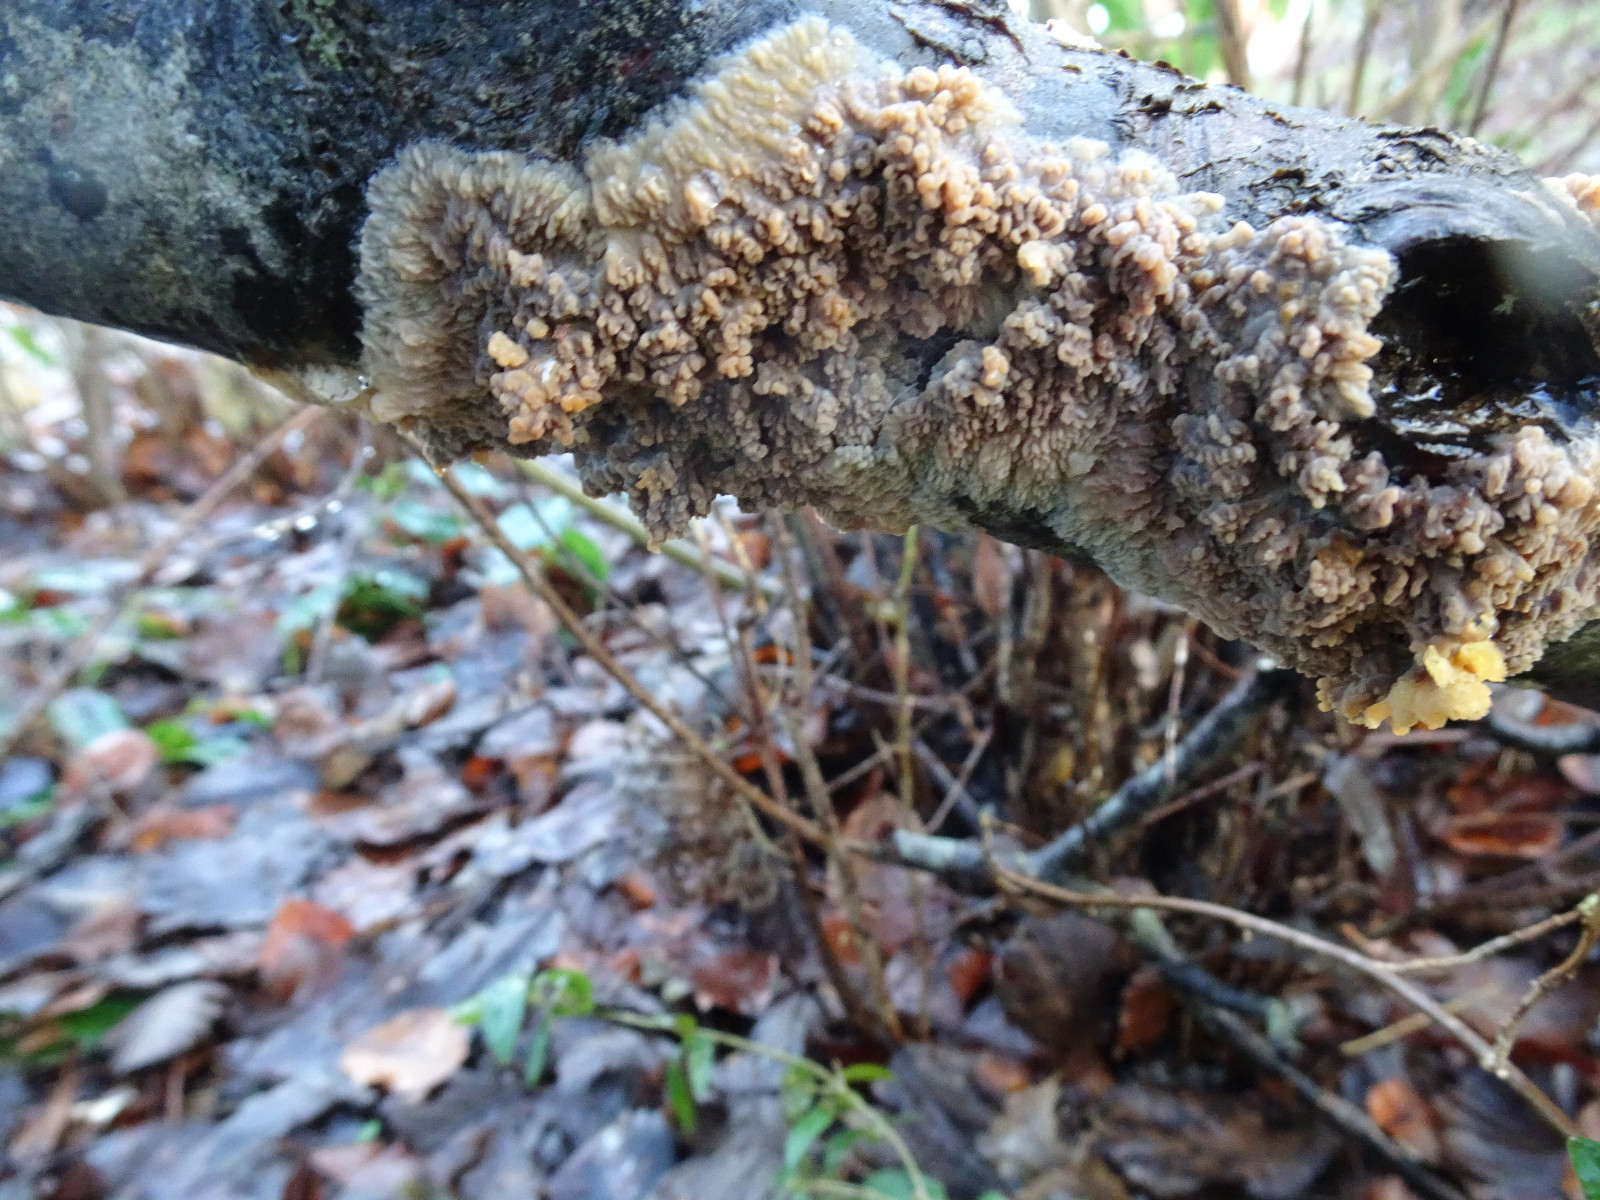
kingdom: Fungi
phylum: Basidiomycota
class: Agaricomycetes
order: Polyporales
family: Meruliaceae
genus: Phlebia
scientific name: Phlebia radiata
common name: stråle-åresvamp
